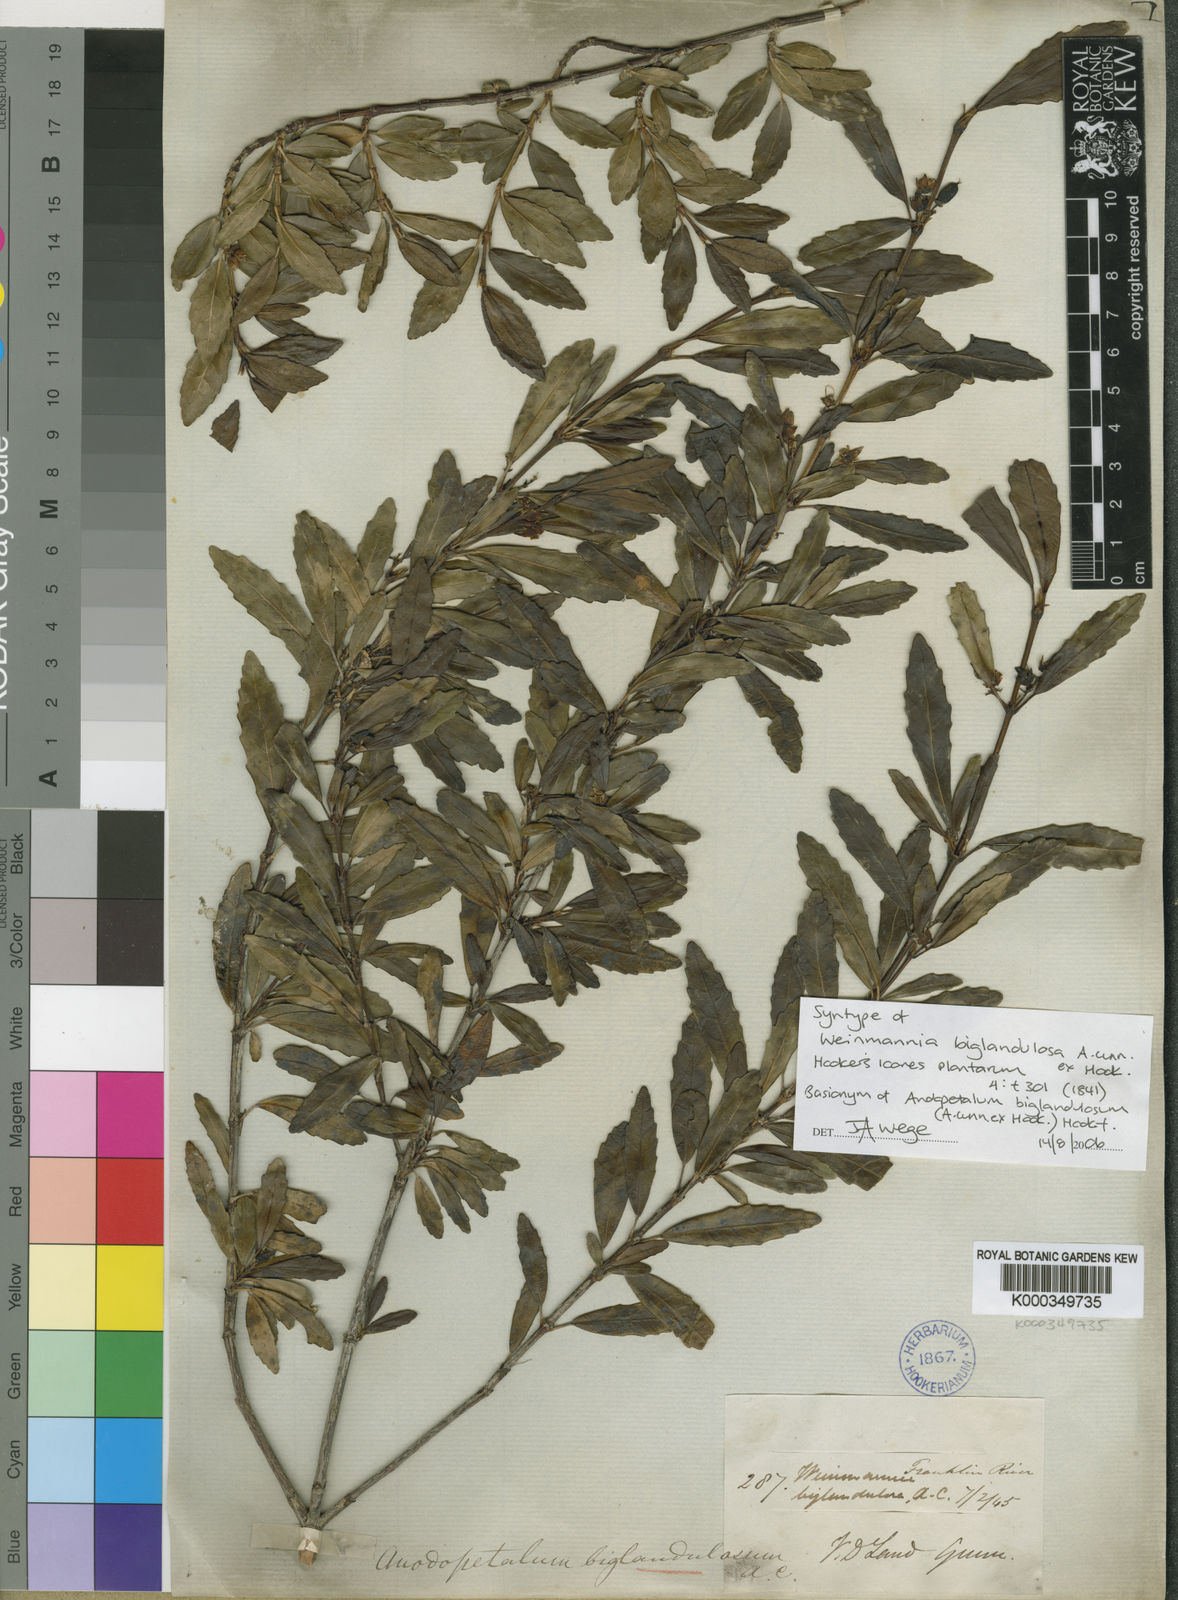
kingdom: Plantae
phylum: Tracheophyta
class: Magnoliopsida
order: Oxalidales
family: Cunoniaceae
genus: Anodopetalum
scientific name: Anodopetalum biglandulosum
